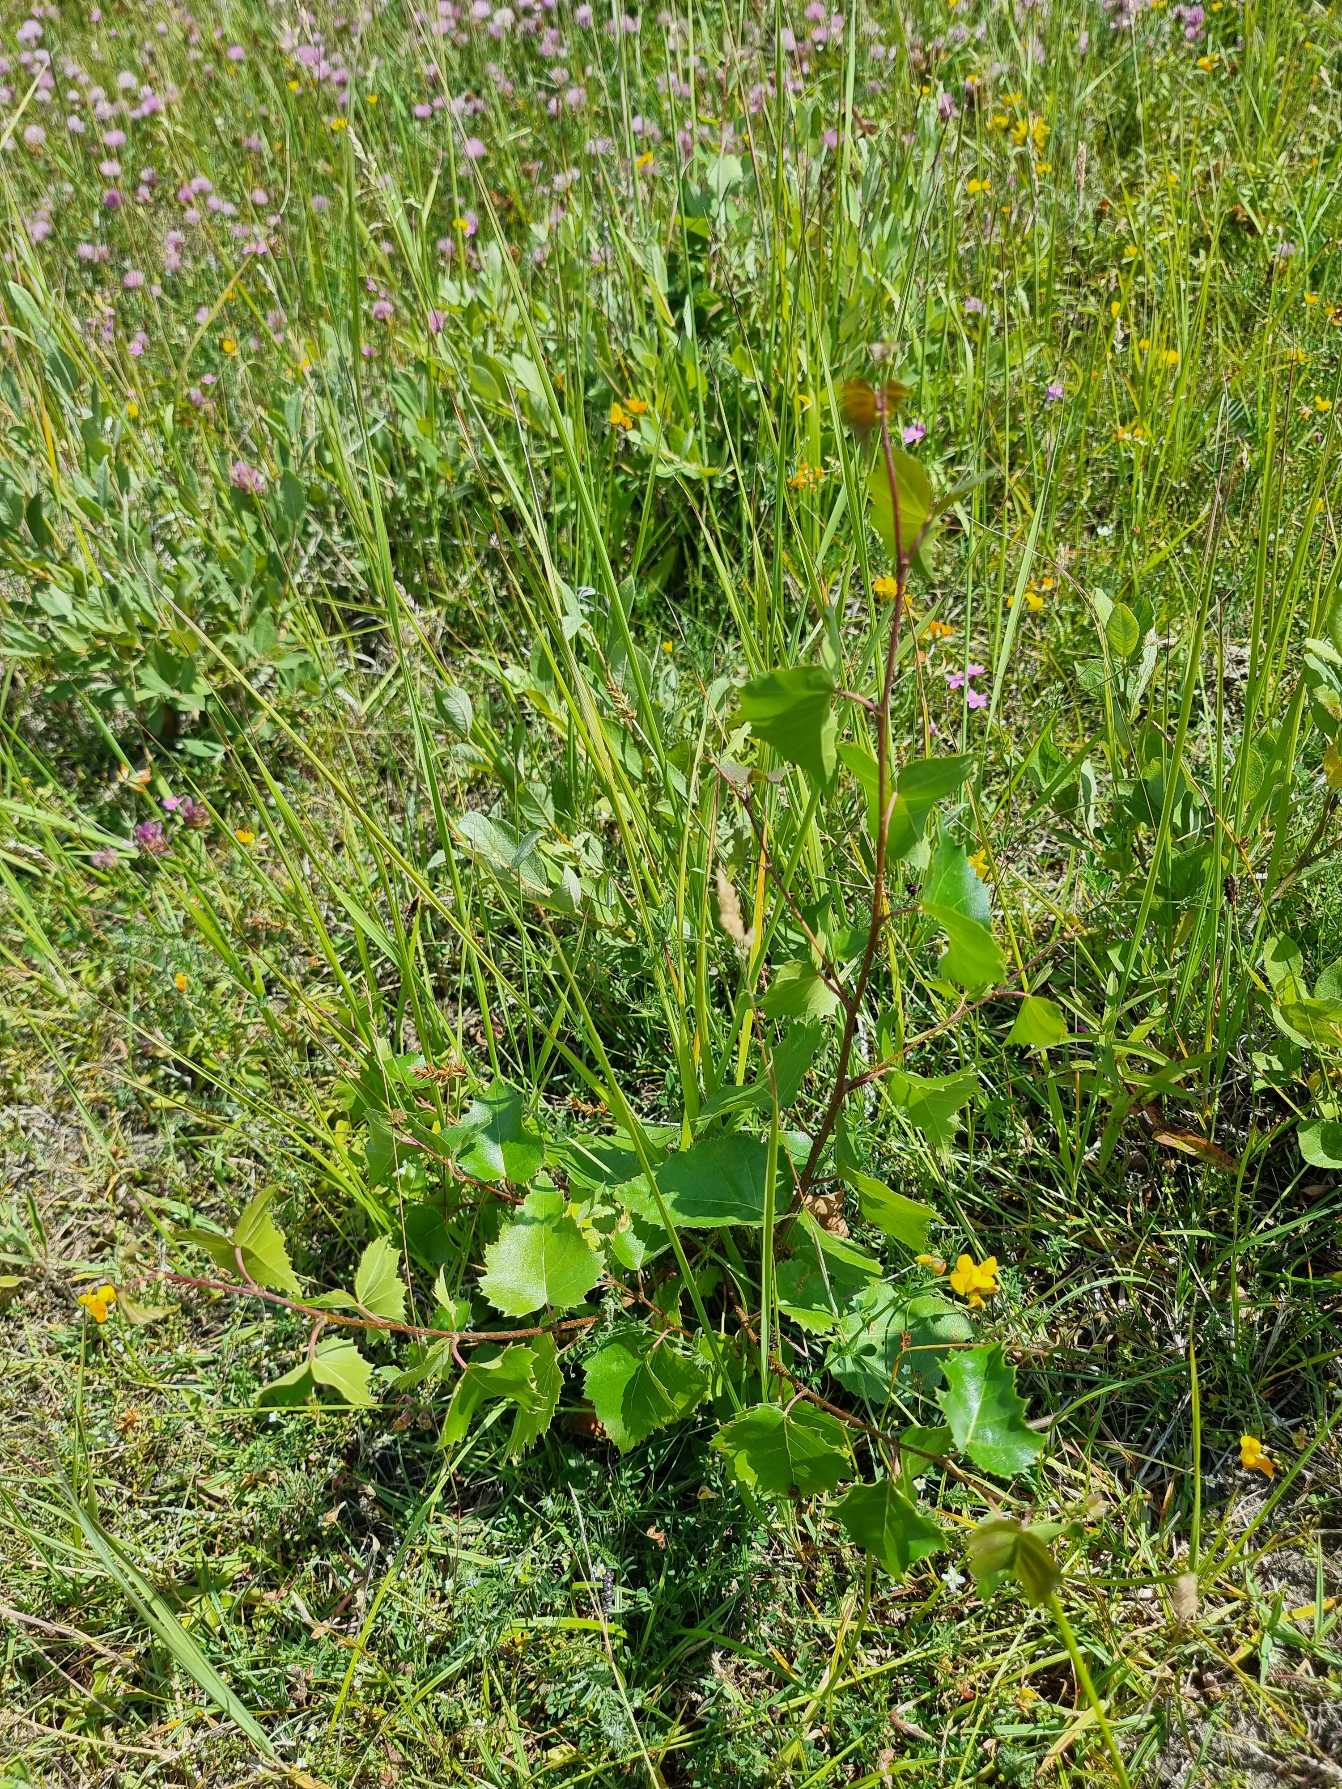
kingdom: Plantae
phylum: Tracheophyta
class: Magnoliopsida
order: Fagales
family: Betulaceae
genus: Betula
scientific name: Betula pendula
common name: Vorte-birk
